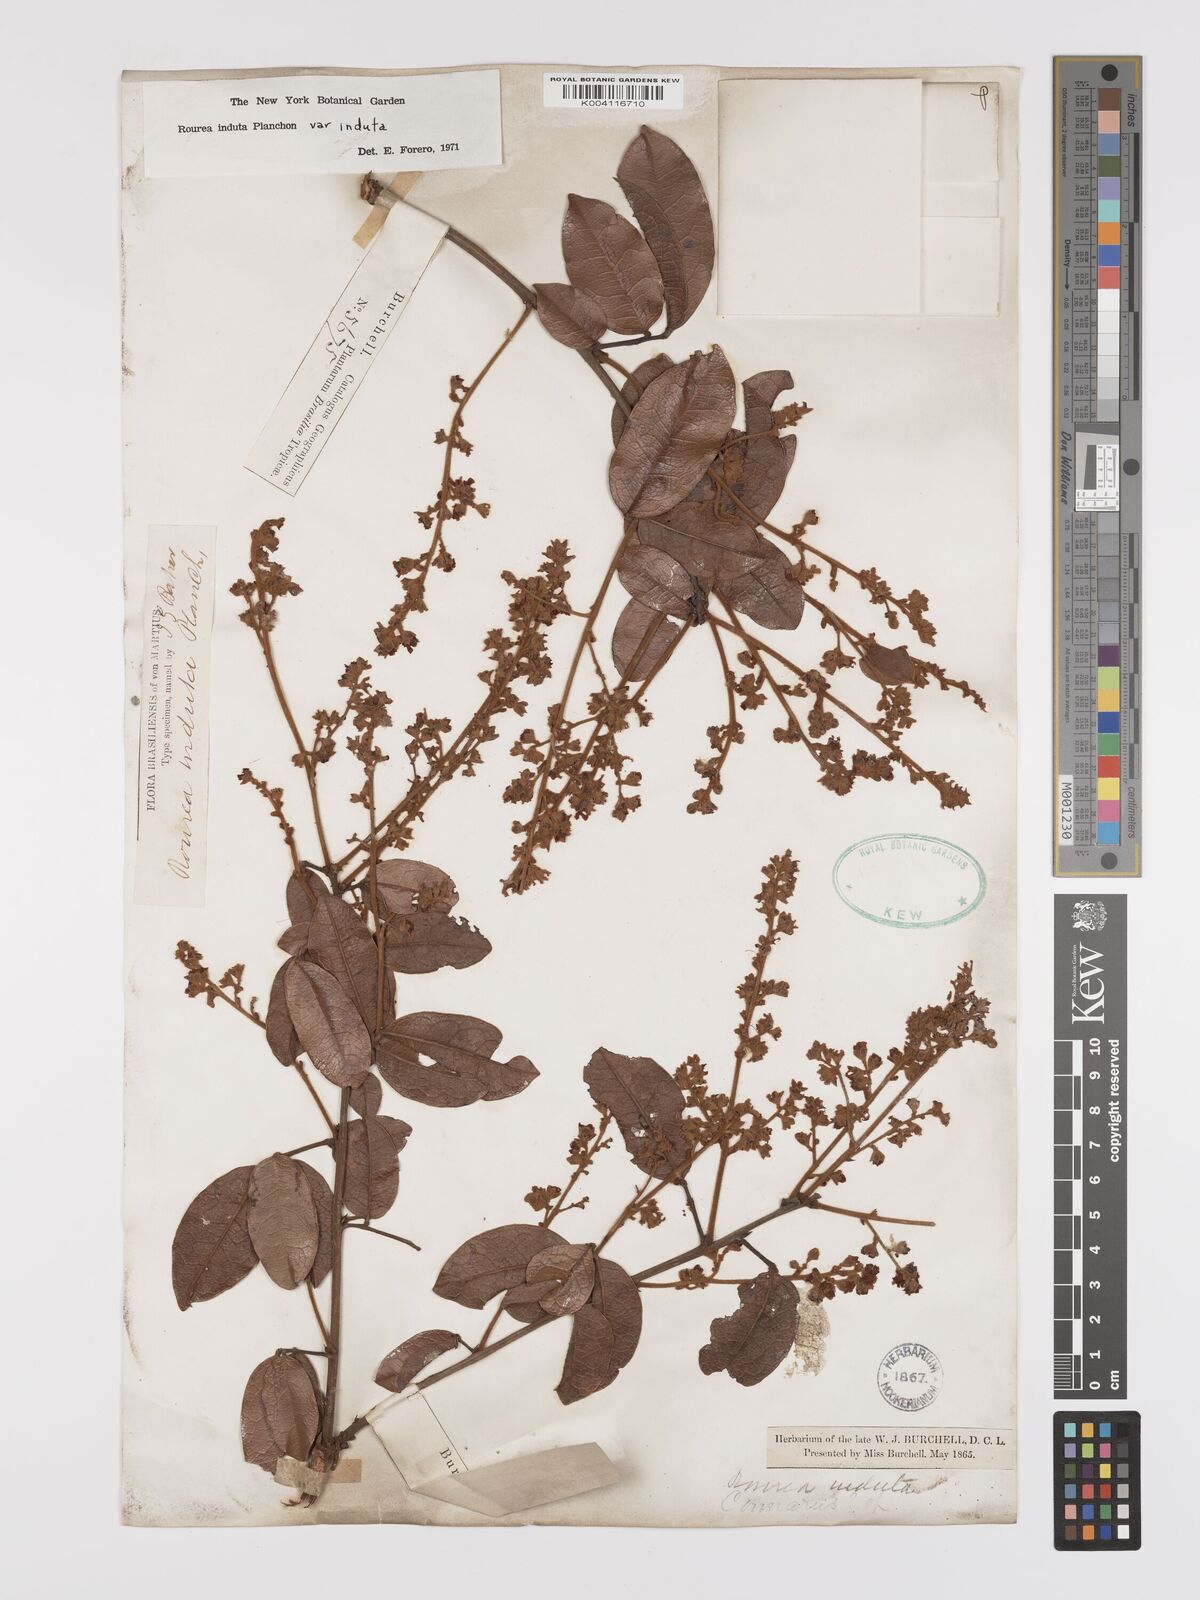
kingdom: Plantae
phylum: Tracheophyta
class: Magnoliopsida
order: Oxalidales
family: Connaraceae
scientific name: Connaraceae
